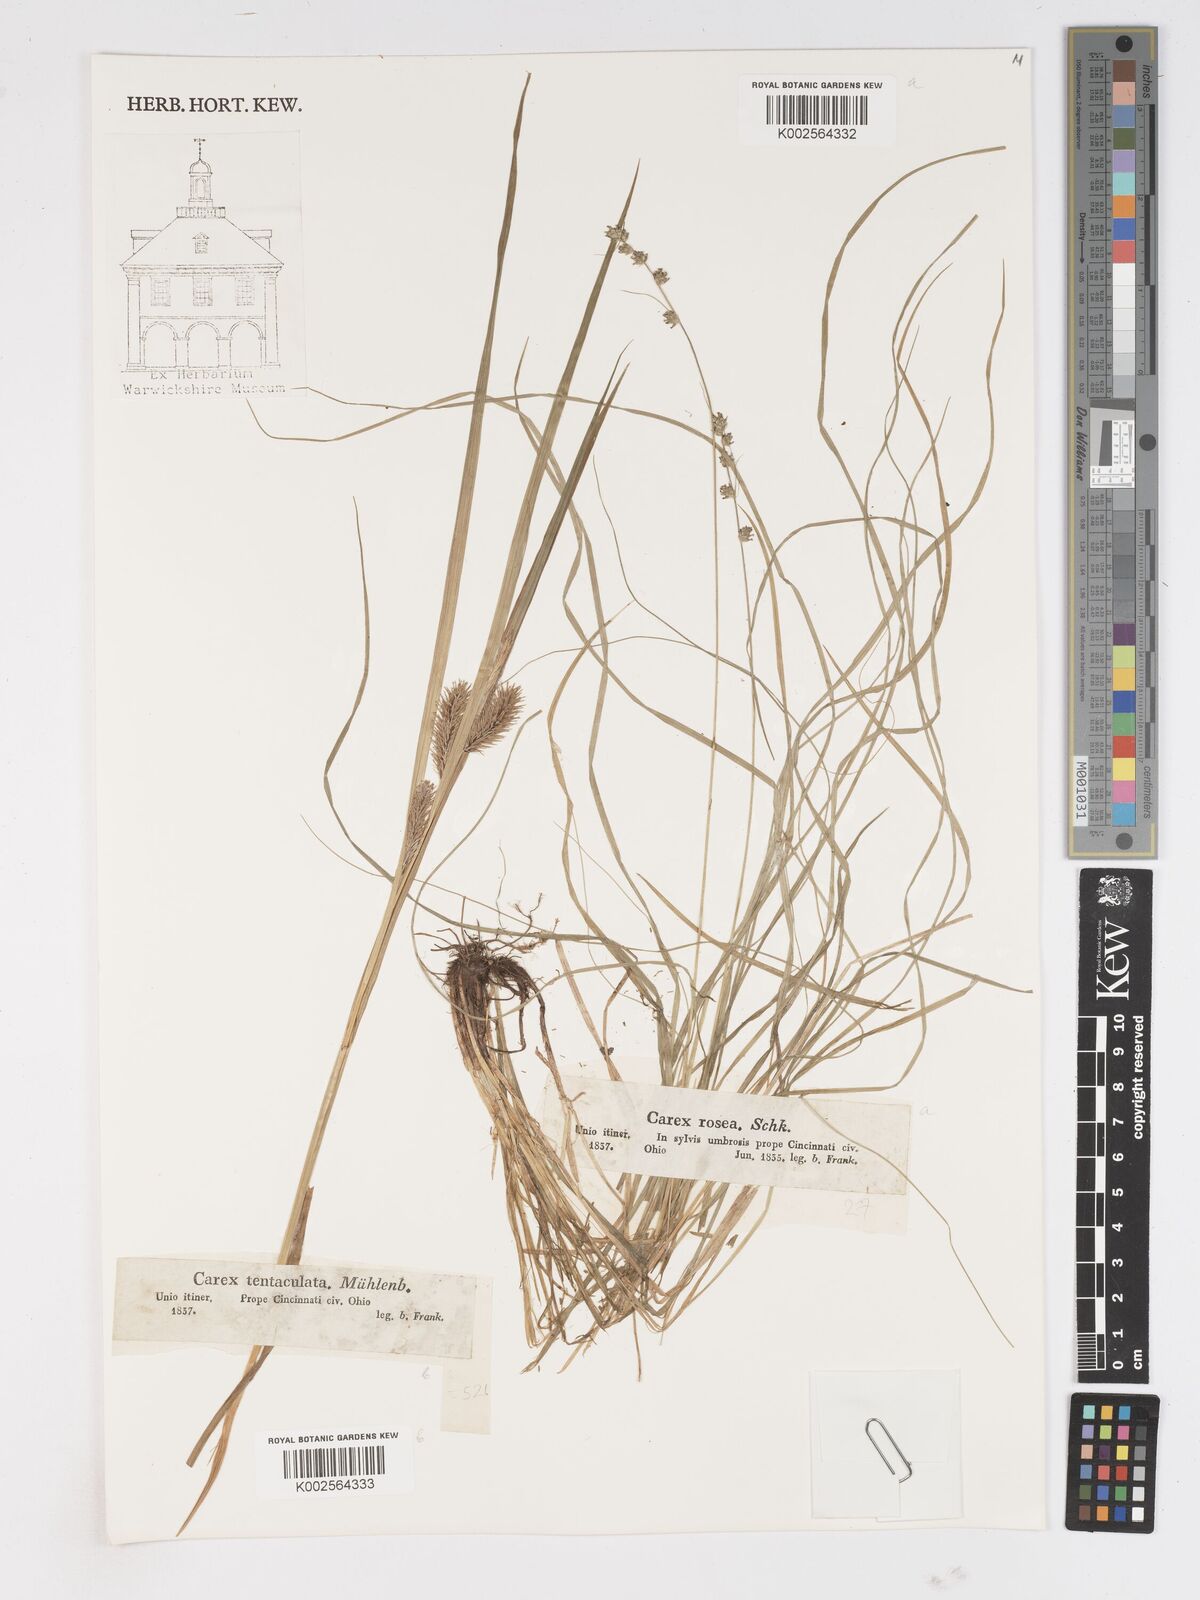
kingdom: Plantae
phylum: Tracheophyta
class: Liliopsida
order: Poales
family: Cyperaceae
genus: Carex
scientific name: Carex lurida
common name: Sallow sedge
